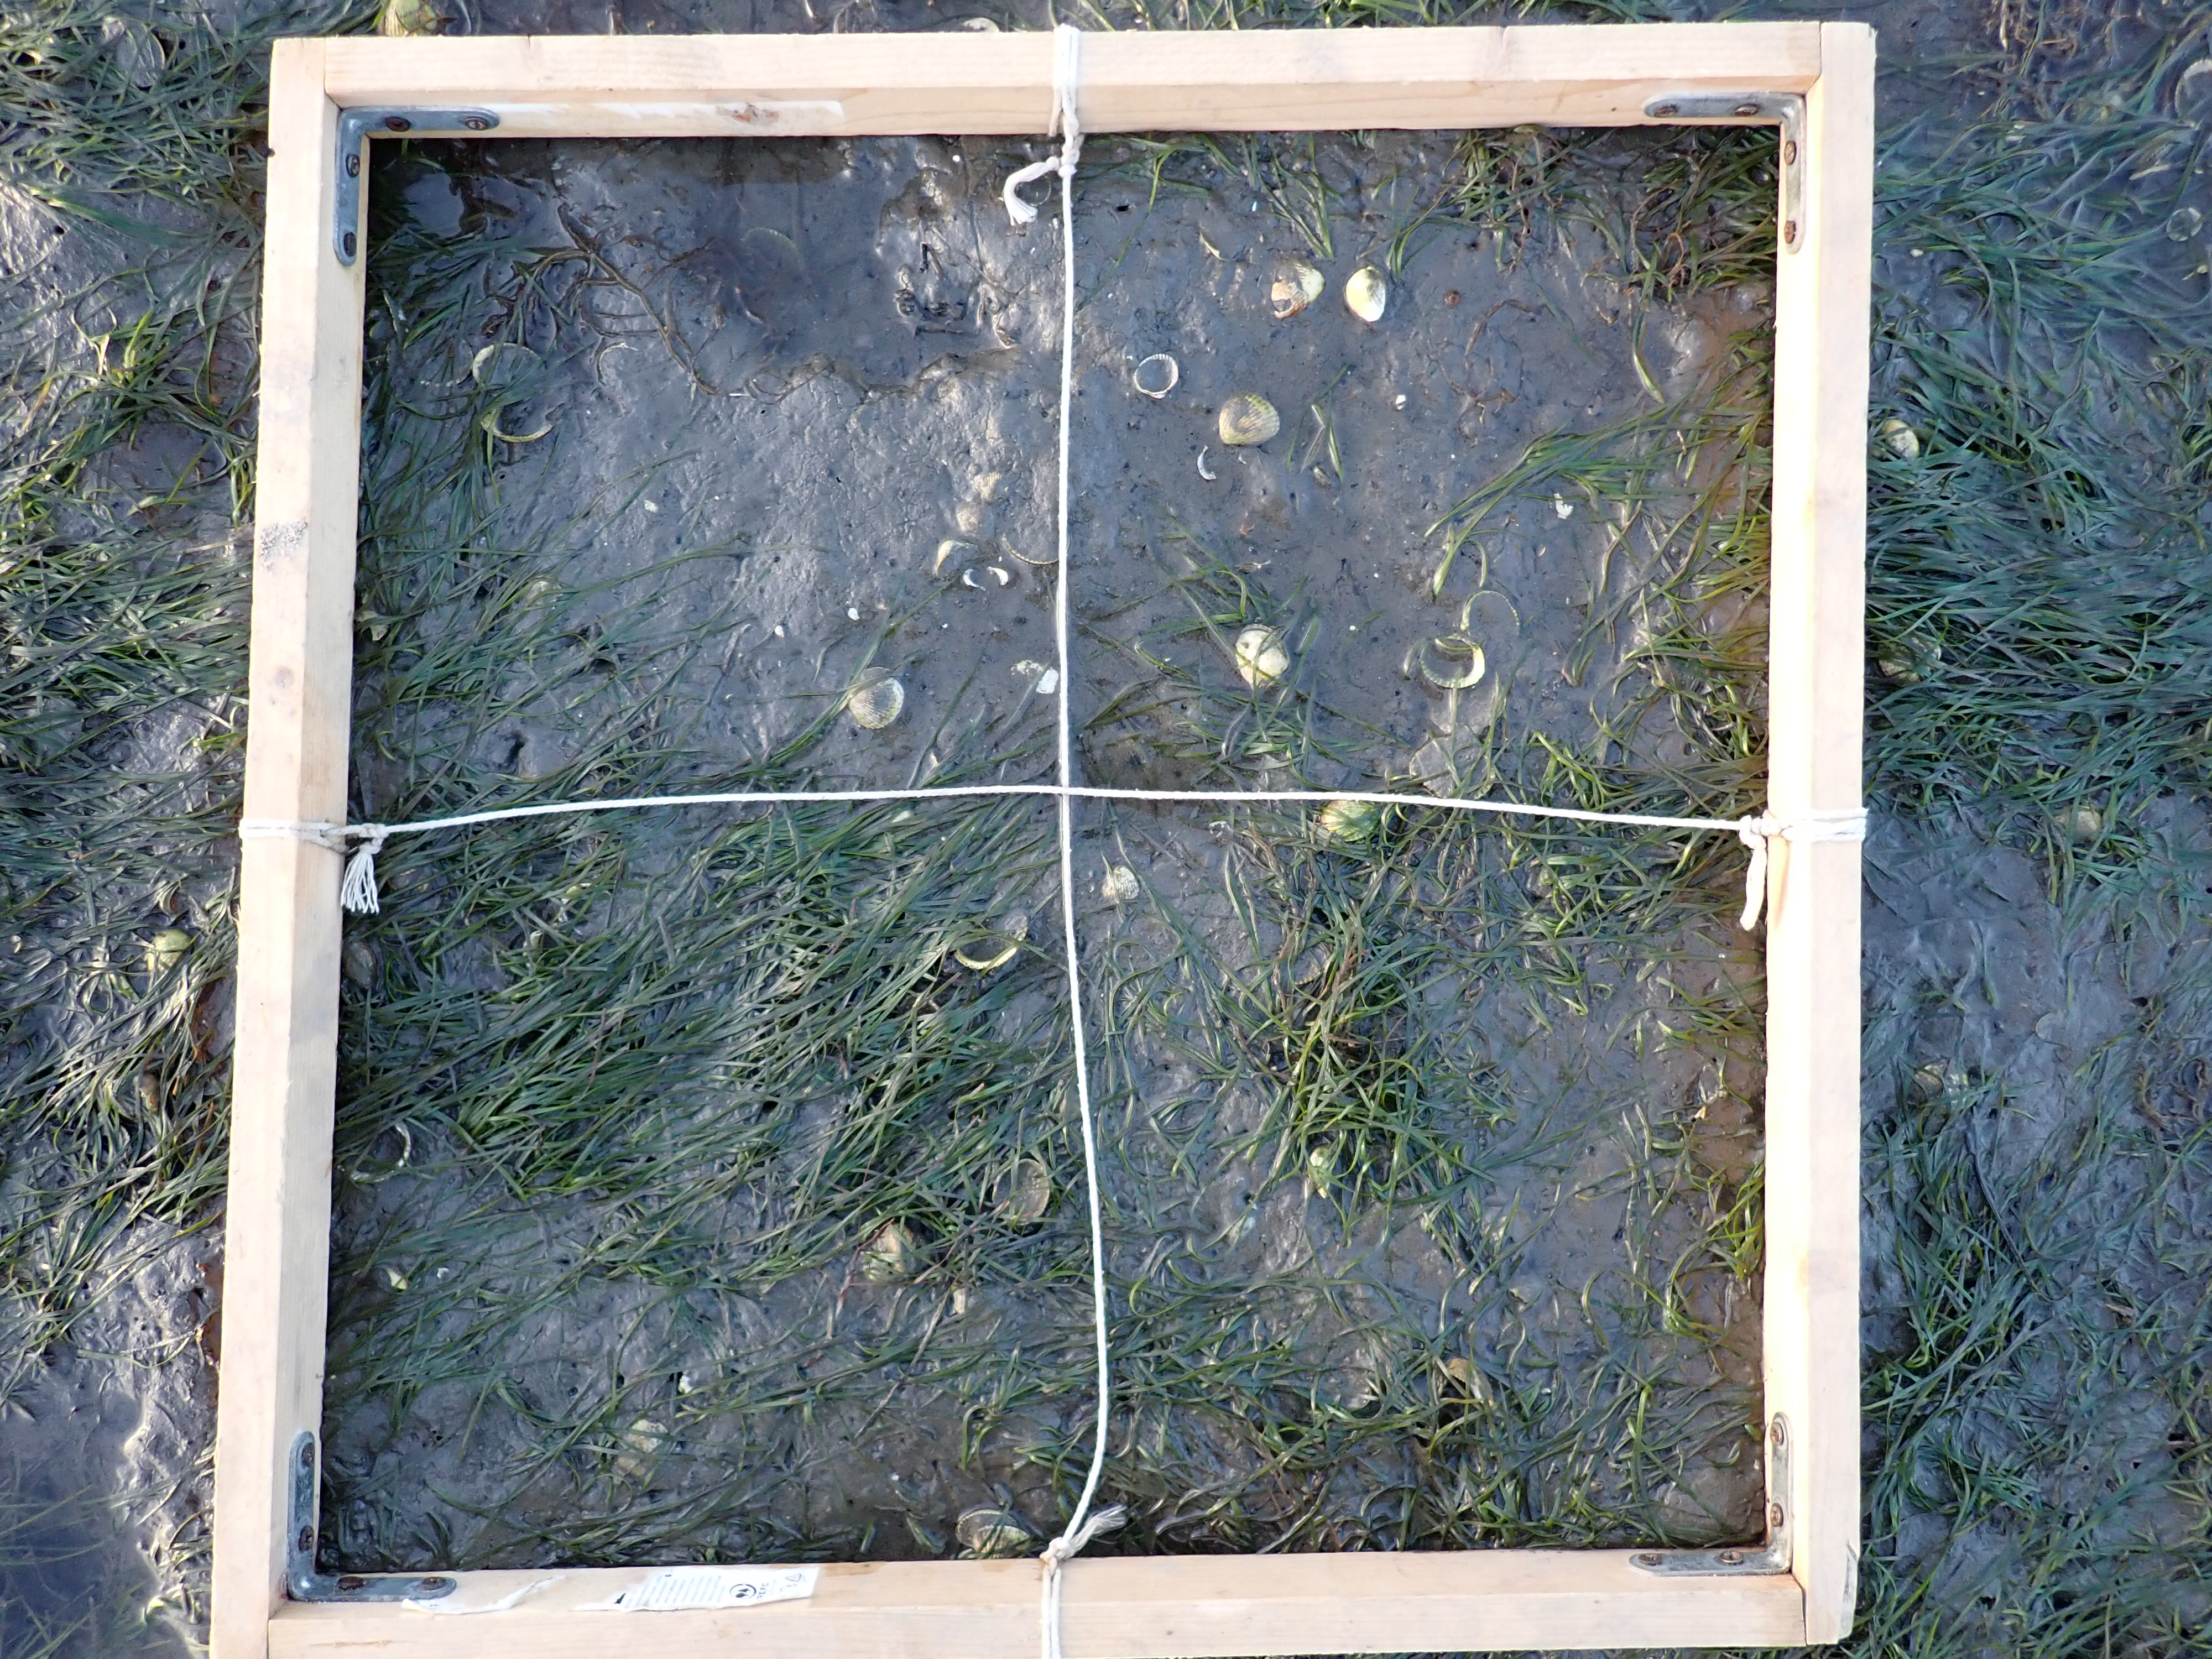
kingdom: Plantae
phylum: Tracheophyta
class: Liliopsida
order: Alismatales
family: Zosteraceae
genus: Zostera
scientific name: Zostera noltii
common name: Dwarf eelgrass
